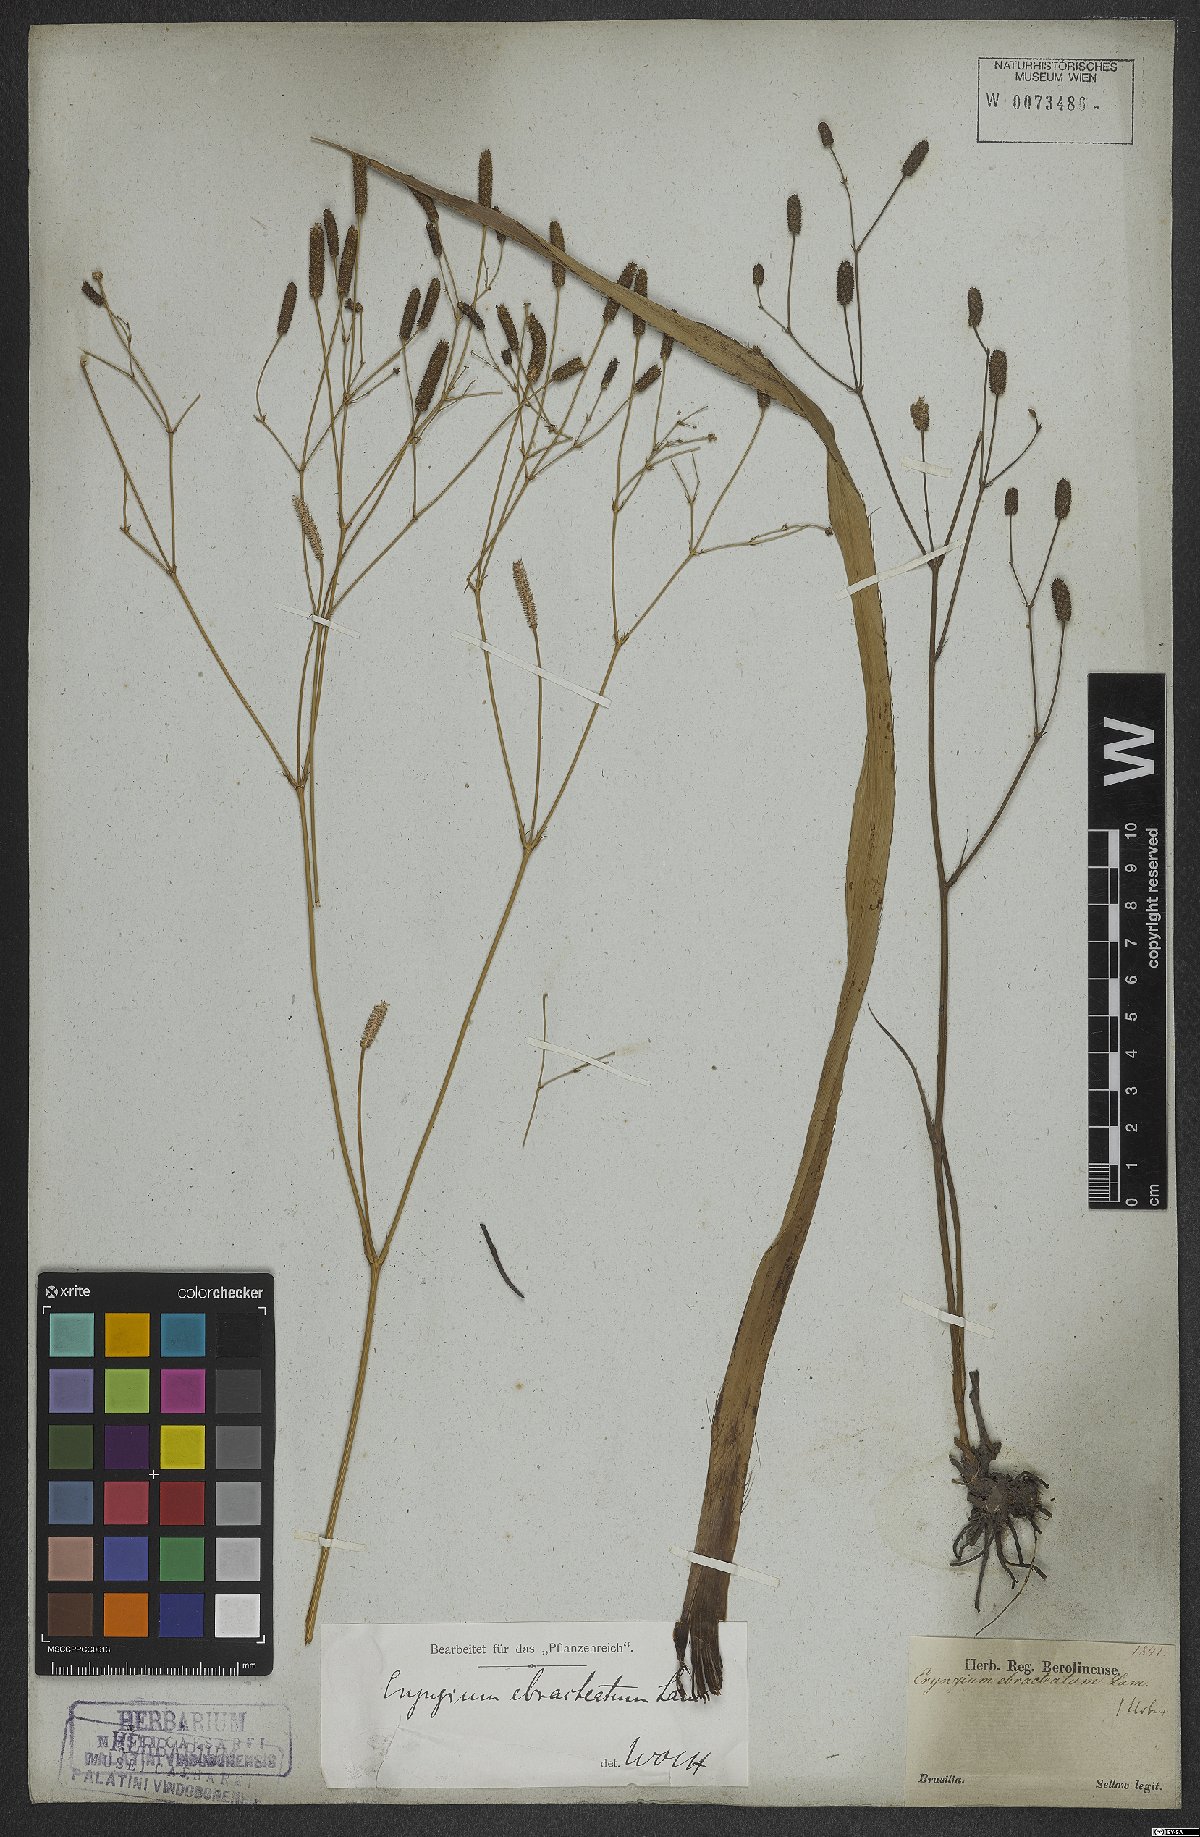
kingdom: Plantae
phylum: Tracheophyta
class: Magnoliopsida
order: Apiales
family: Apiaceae
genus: Eryngium
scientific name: Eryngium ebracteatum
